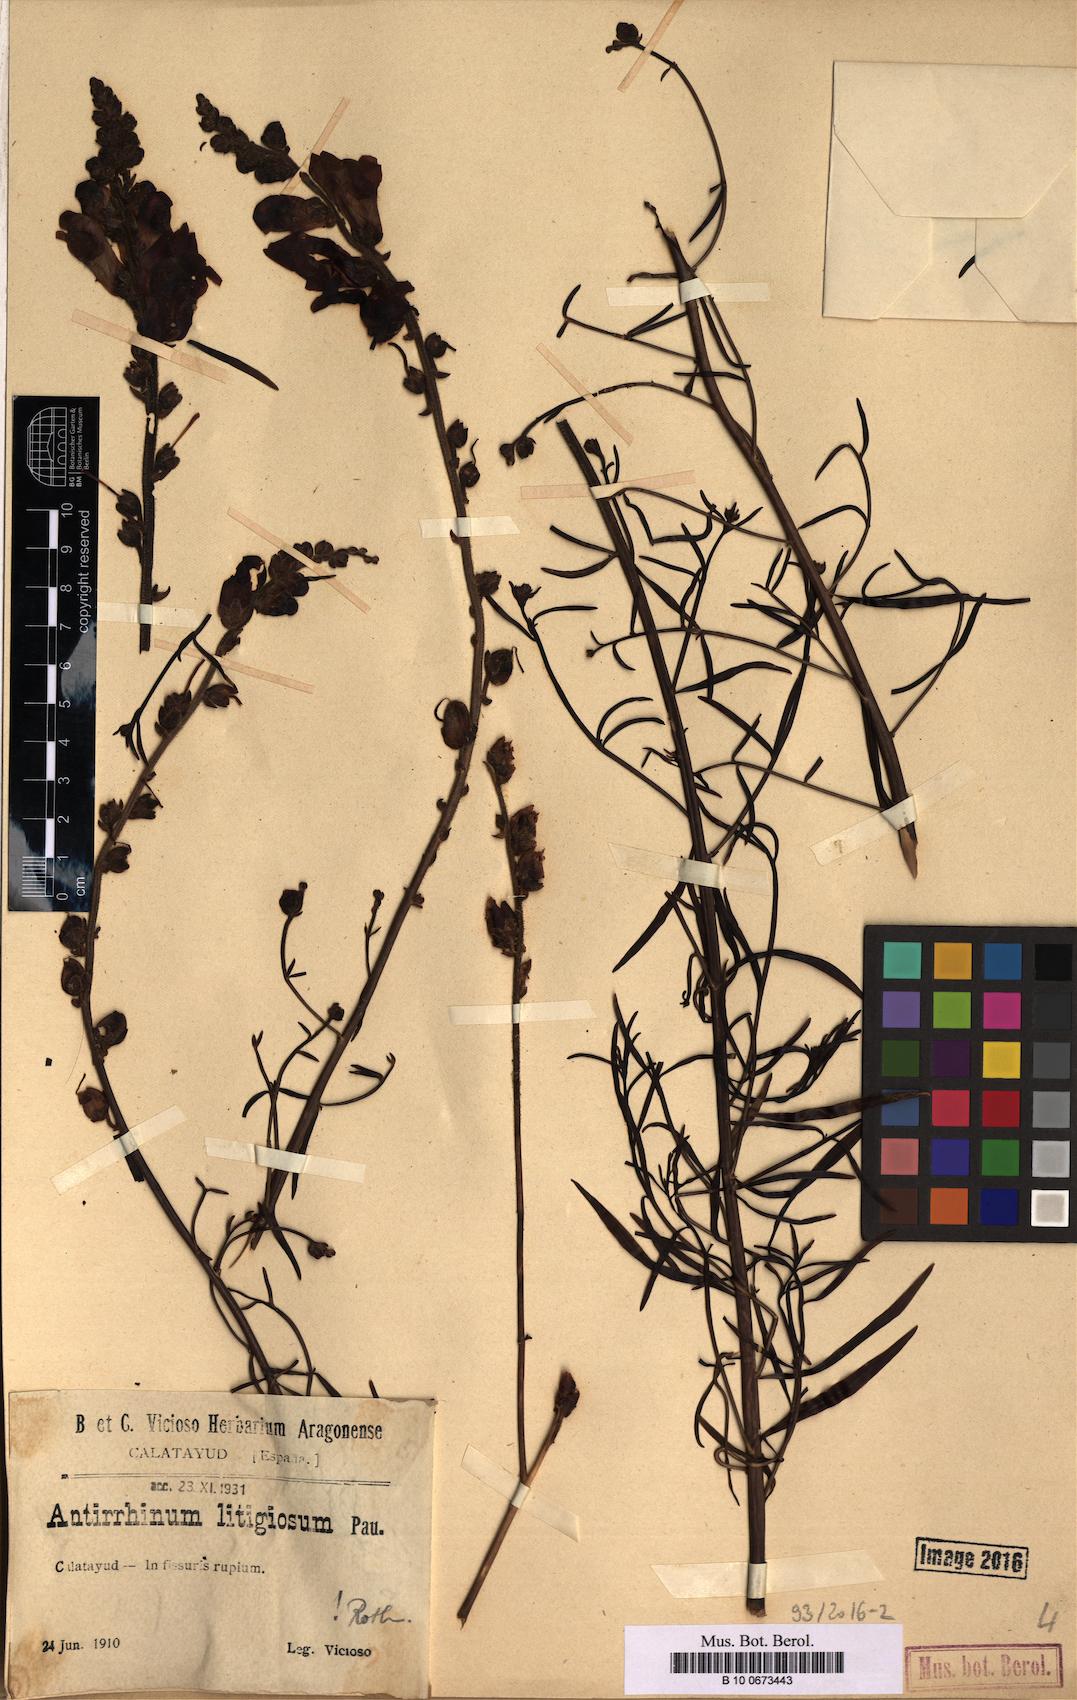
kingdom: Plantae
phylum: Tracheophyta
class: Magnoliopsida
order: Lamiales
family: Plantaginaceae
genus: Antirrhinum
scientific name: Antirrhinum litigiosum
